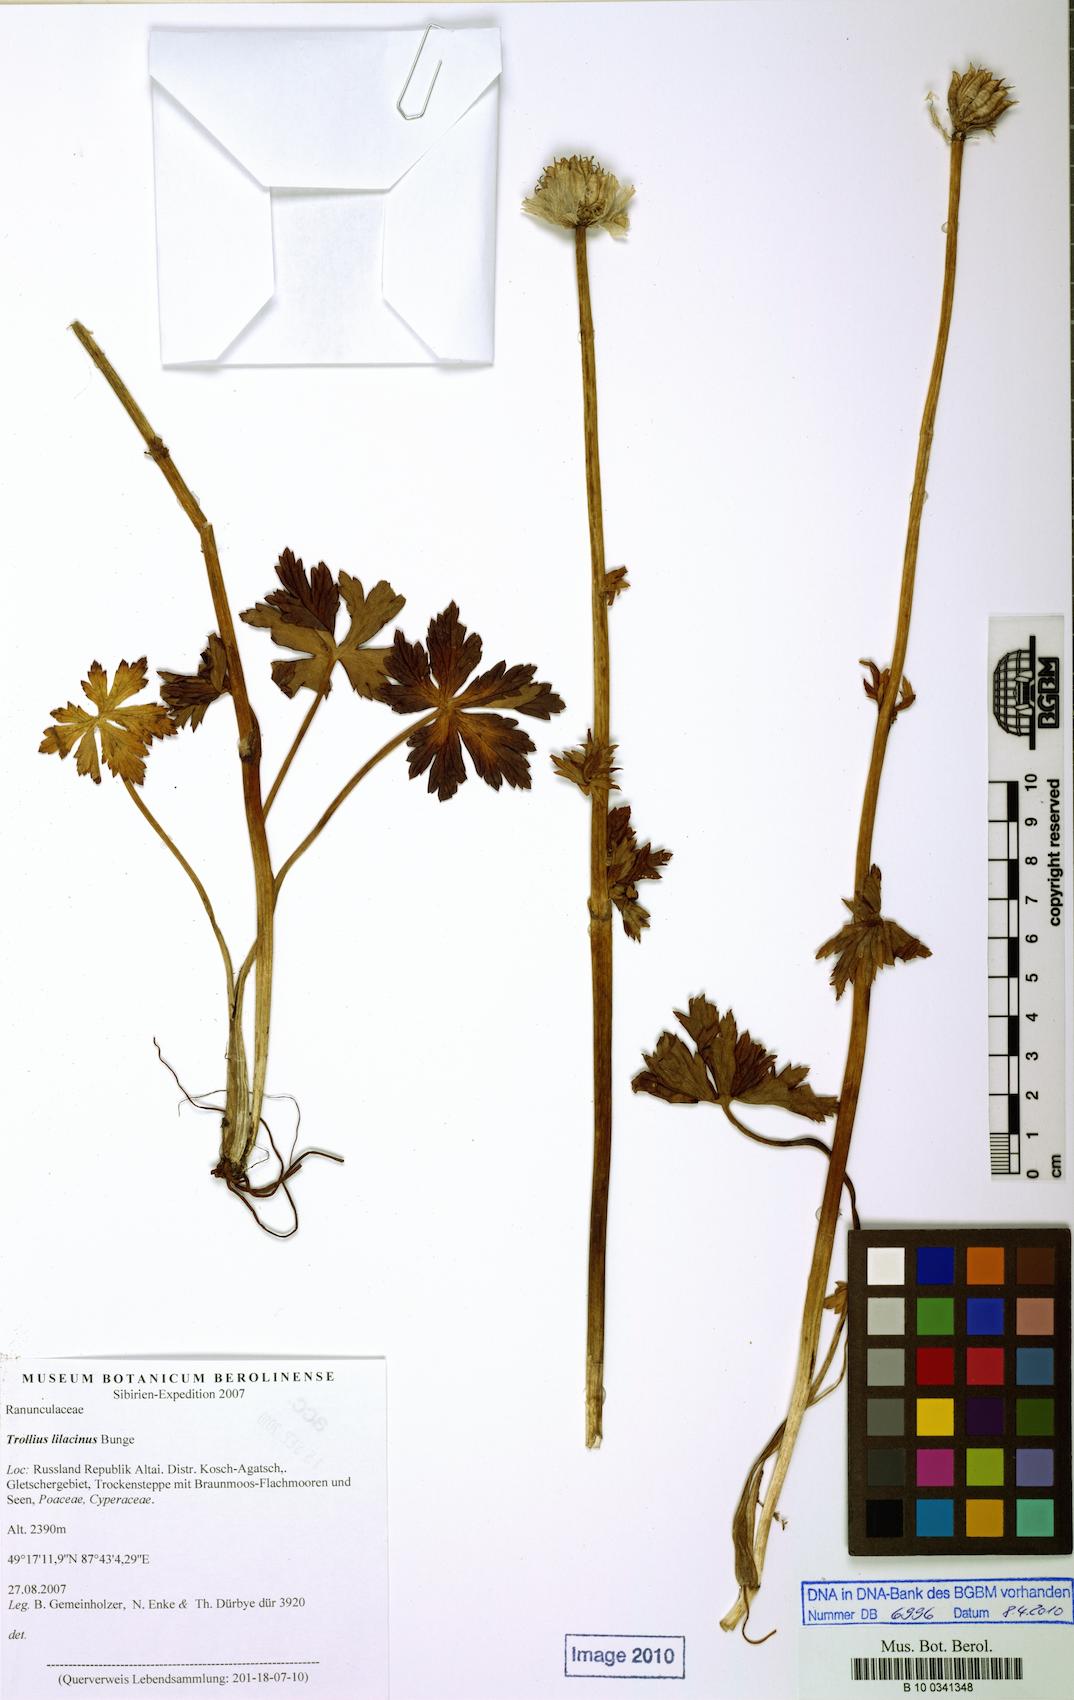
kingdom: Plantae
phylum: Tracheophyta
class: Magnoliopsida
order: Ranunculales
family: Ranunculaceae
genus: Trollius
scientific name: Trollius lilacinus
